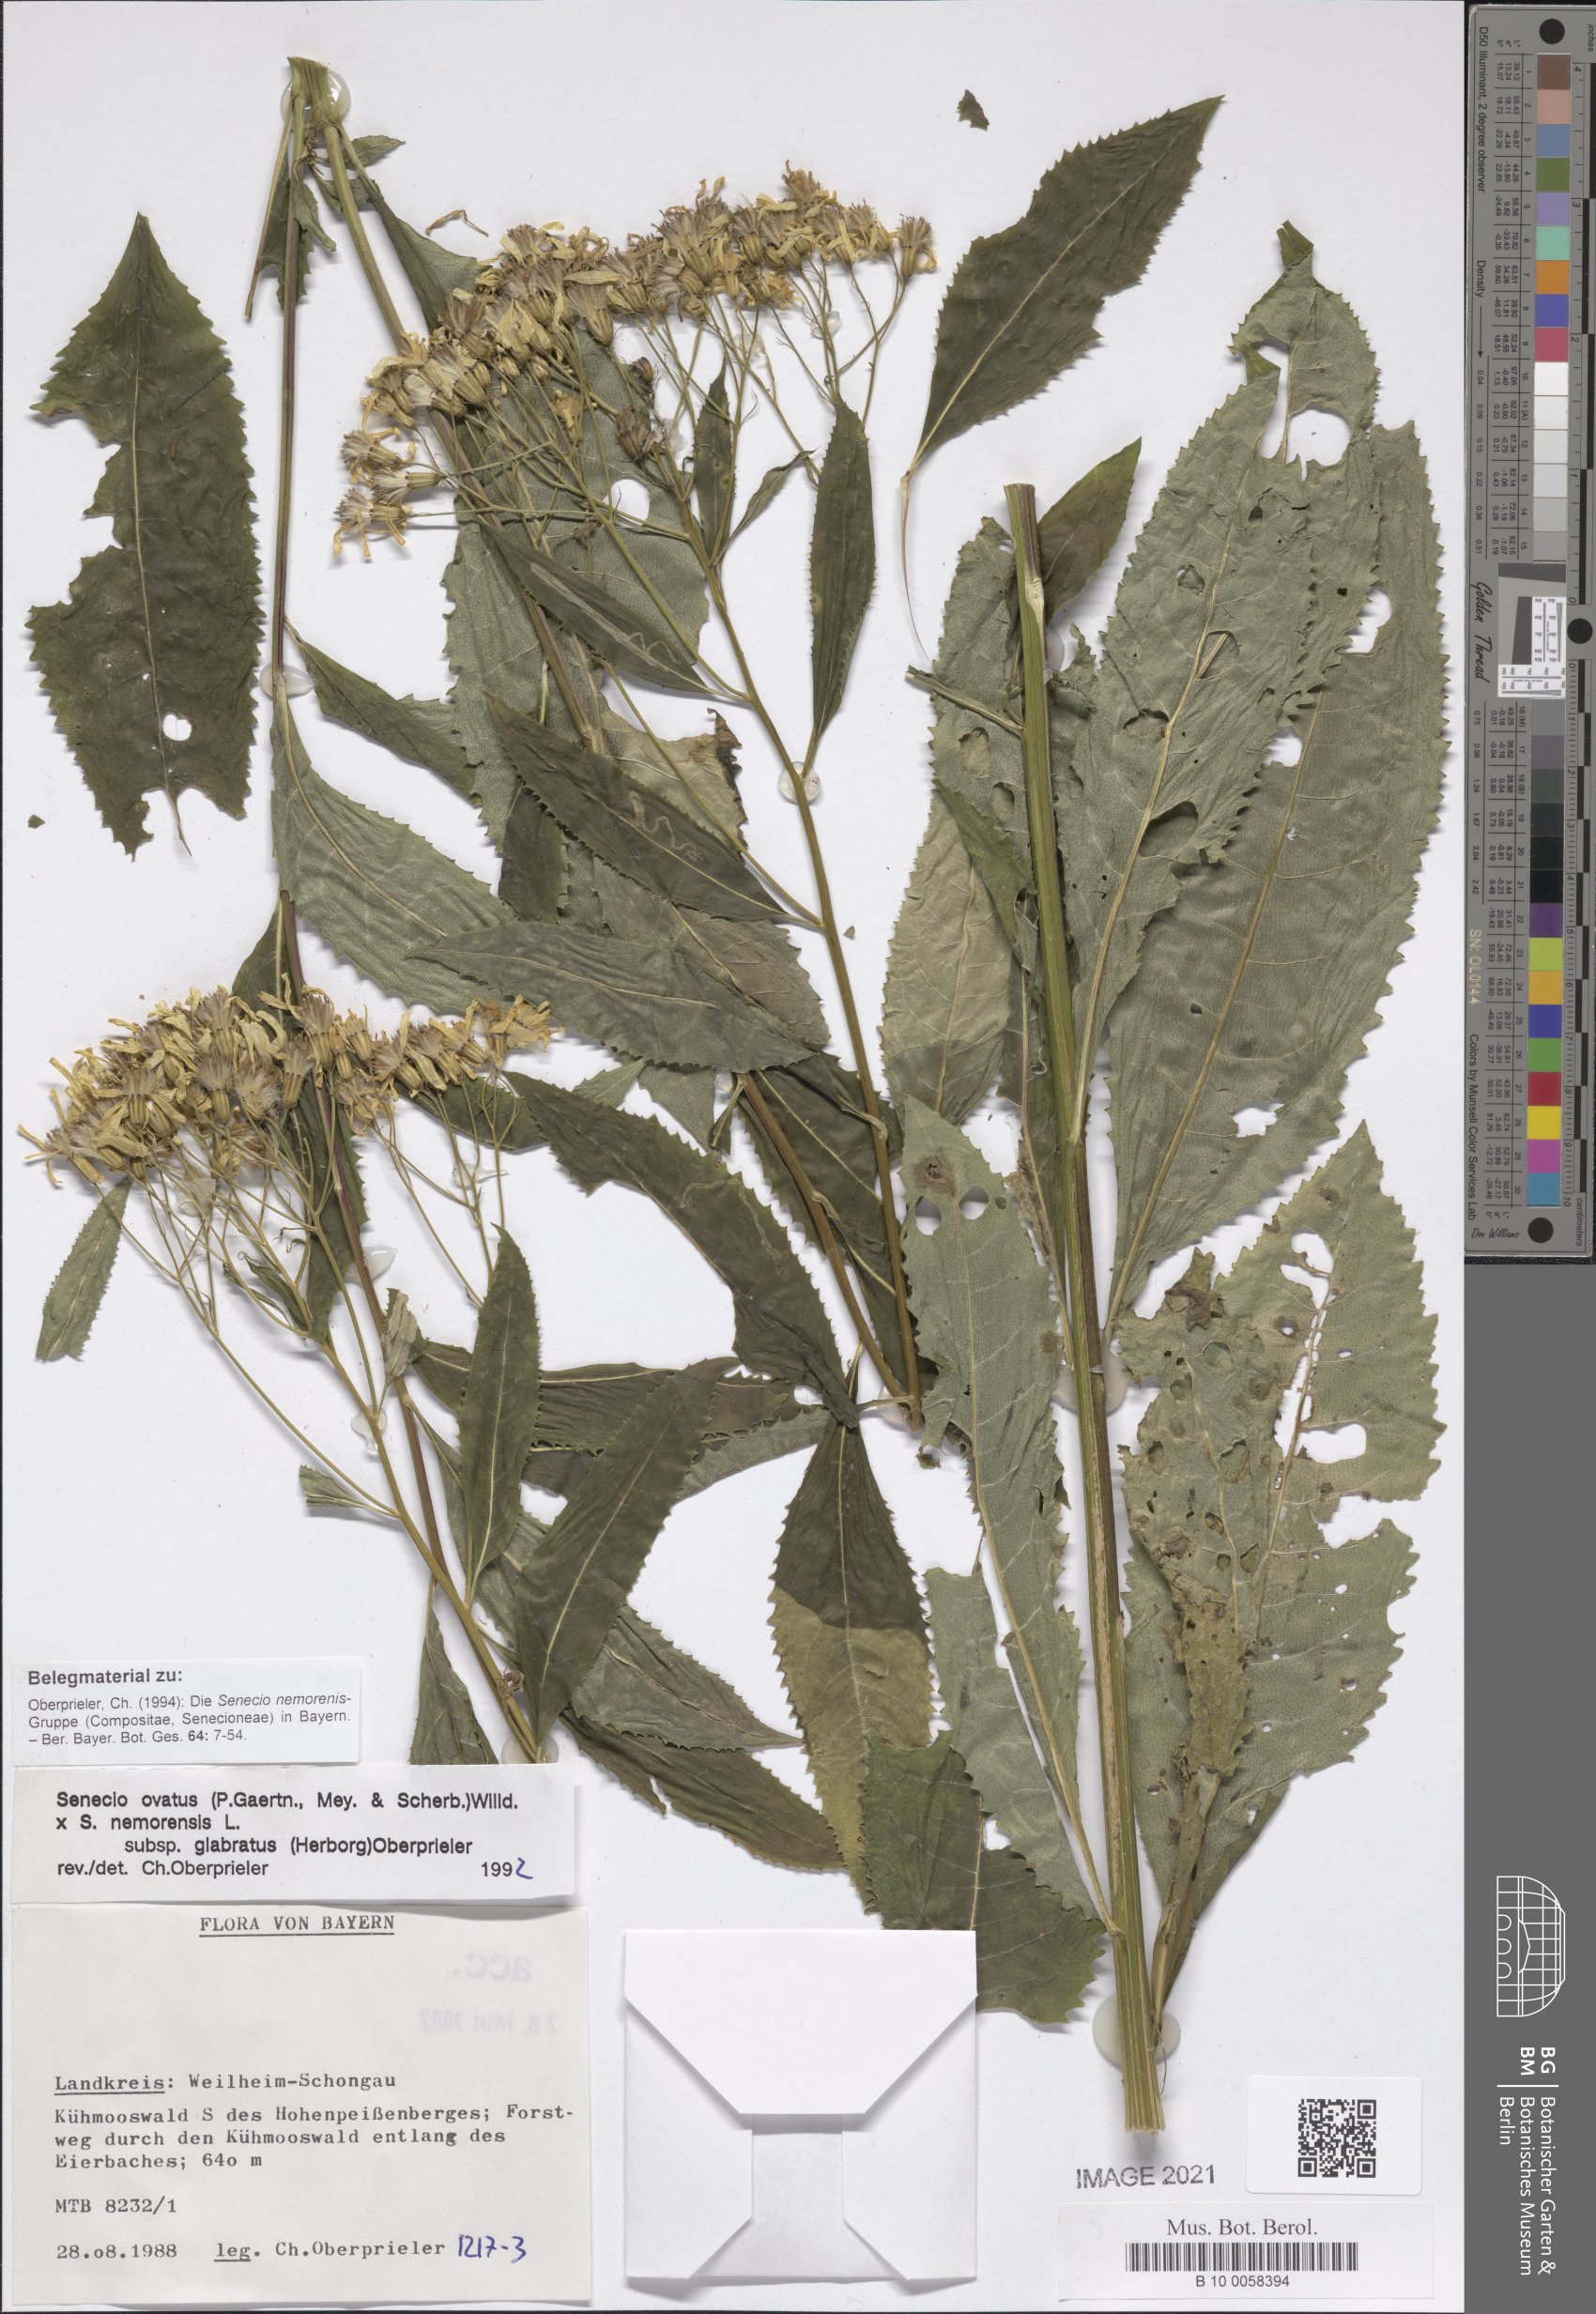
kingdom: Plantae
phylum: Tracheophyta
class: Magnoliopsida
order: Asterales
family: Asteraceae
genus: Senecio
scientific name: Senecio ovatus
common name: Wood ragwort
